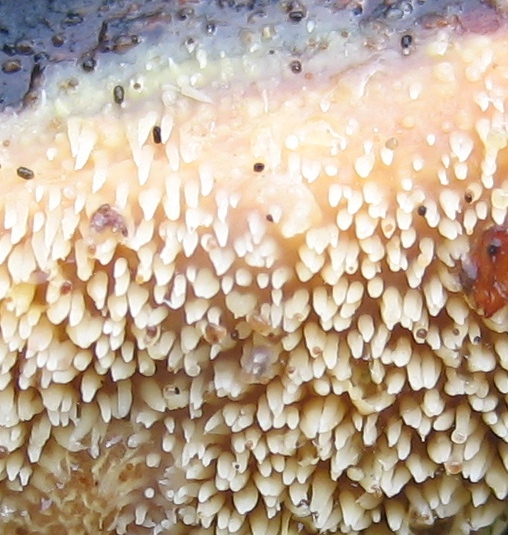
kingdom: Fungi
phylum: Basidiomycota
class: Agaricomycetes
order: Polyporales
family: Meruliaceae
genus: Mycoacia
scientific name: Mycoacia uda
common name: citrongul vokspig
